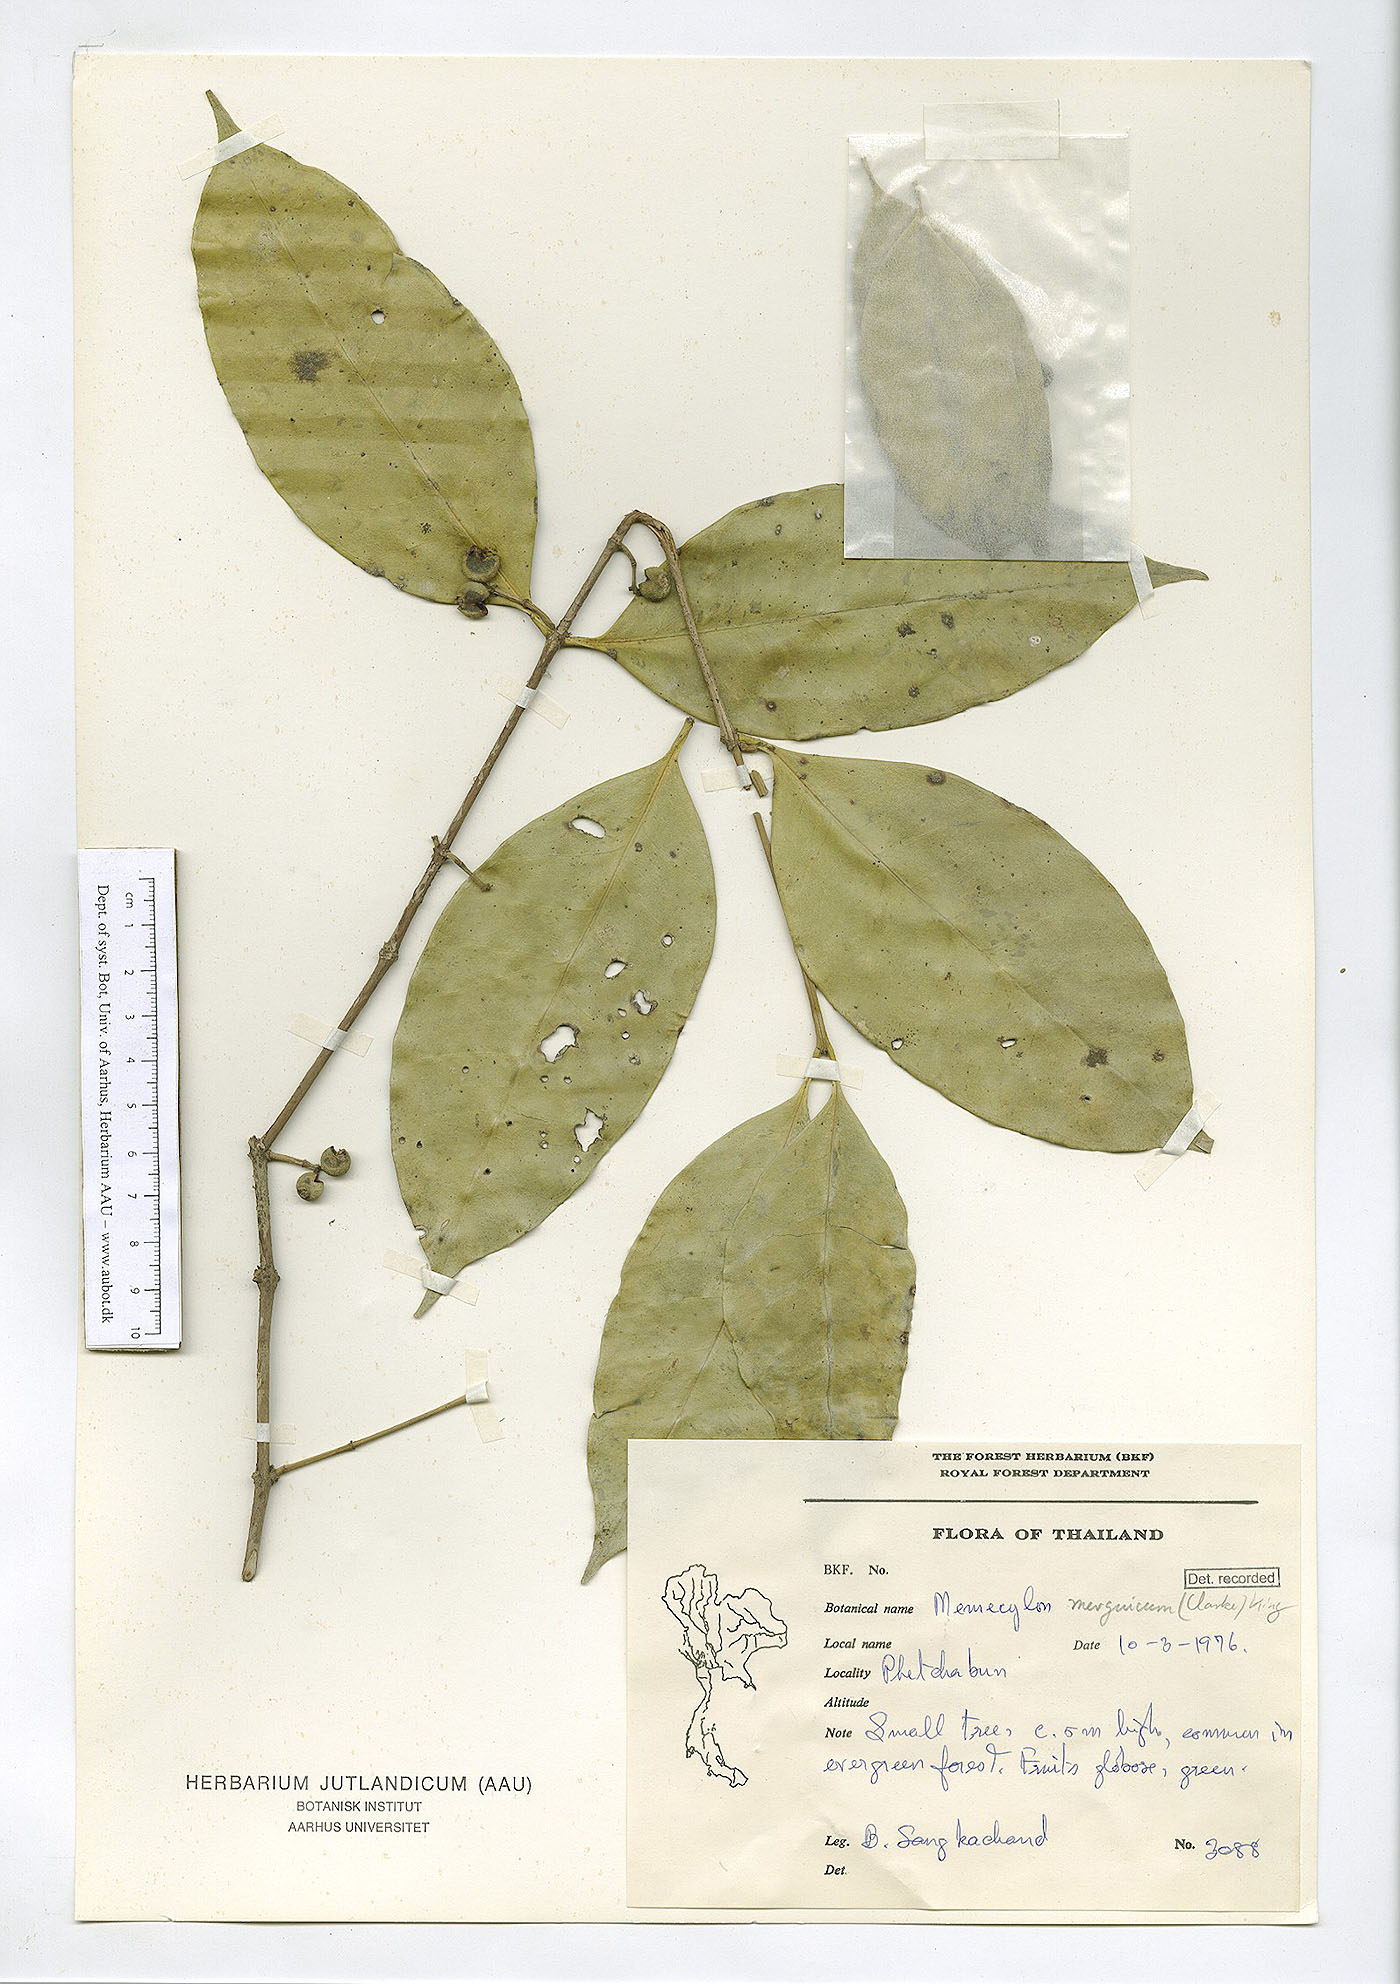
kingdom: Plantae
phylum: Tracheophyta
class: Magnoliopsida
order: Myrtales
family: Melastomataceae
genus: Memecylon
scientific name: Memecylon
